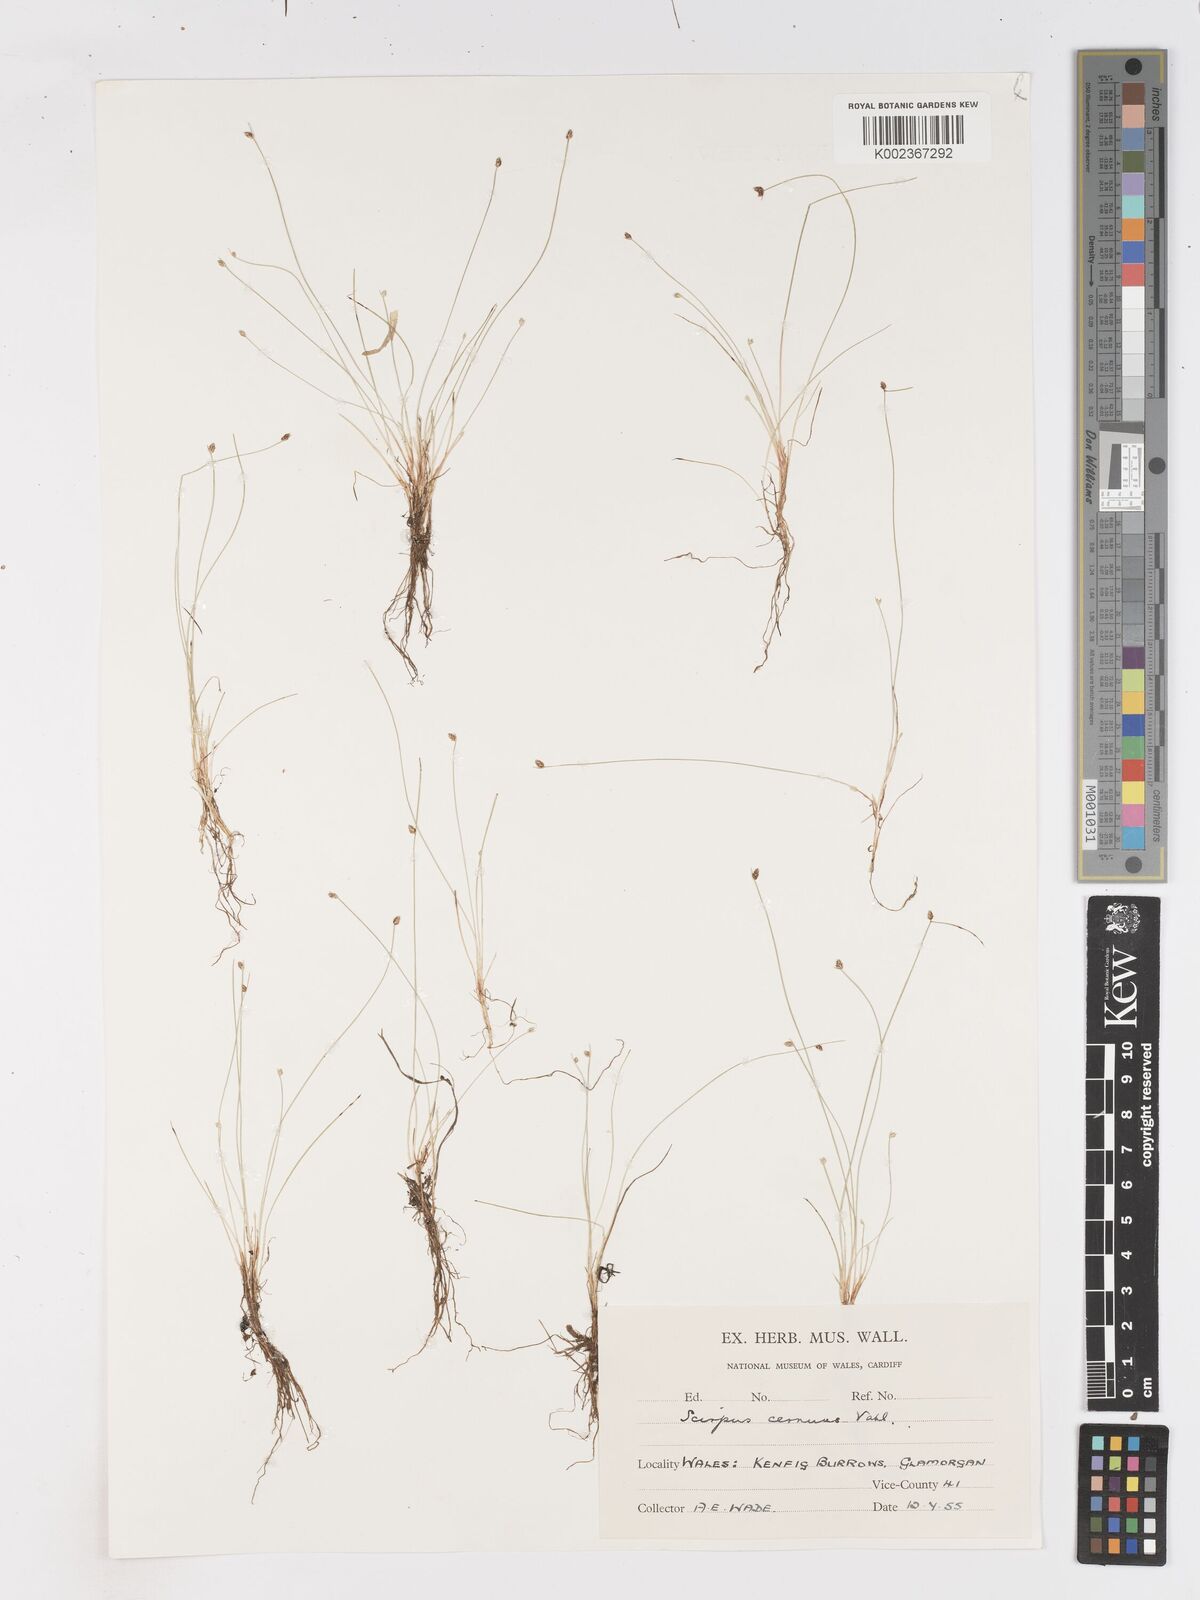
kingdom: Plantae
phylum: Tracheophyta
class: Liliopsida
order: Poales
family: Cyperaceae
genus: Isolepis
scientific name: Isolepis cernua
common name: Slender club-rush
